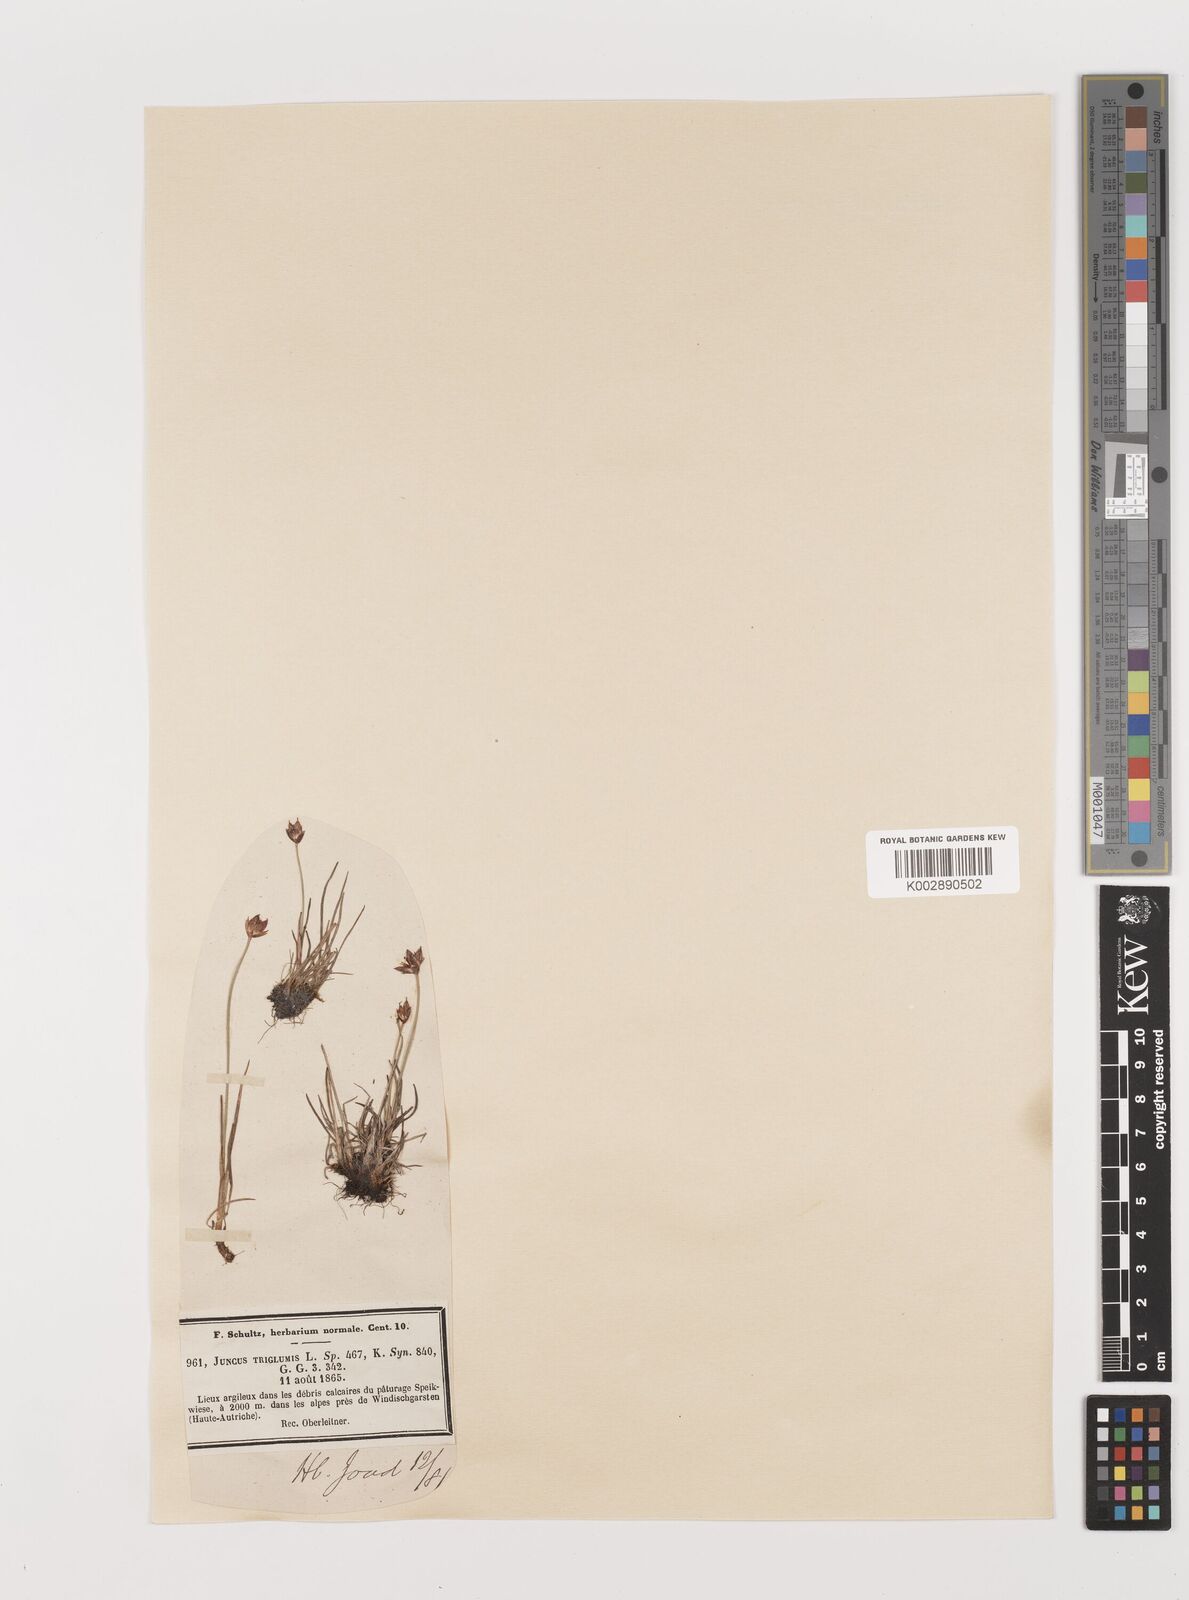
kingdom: Plantae
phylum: Tracheophyta
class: Liliopsida
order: Poales
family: Juncaceae
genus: Juncus
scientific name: Juncus triglumis
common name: Three-flowered rush
